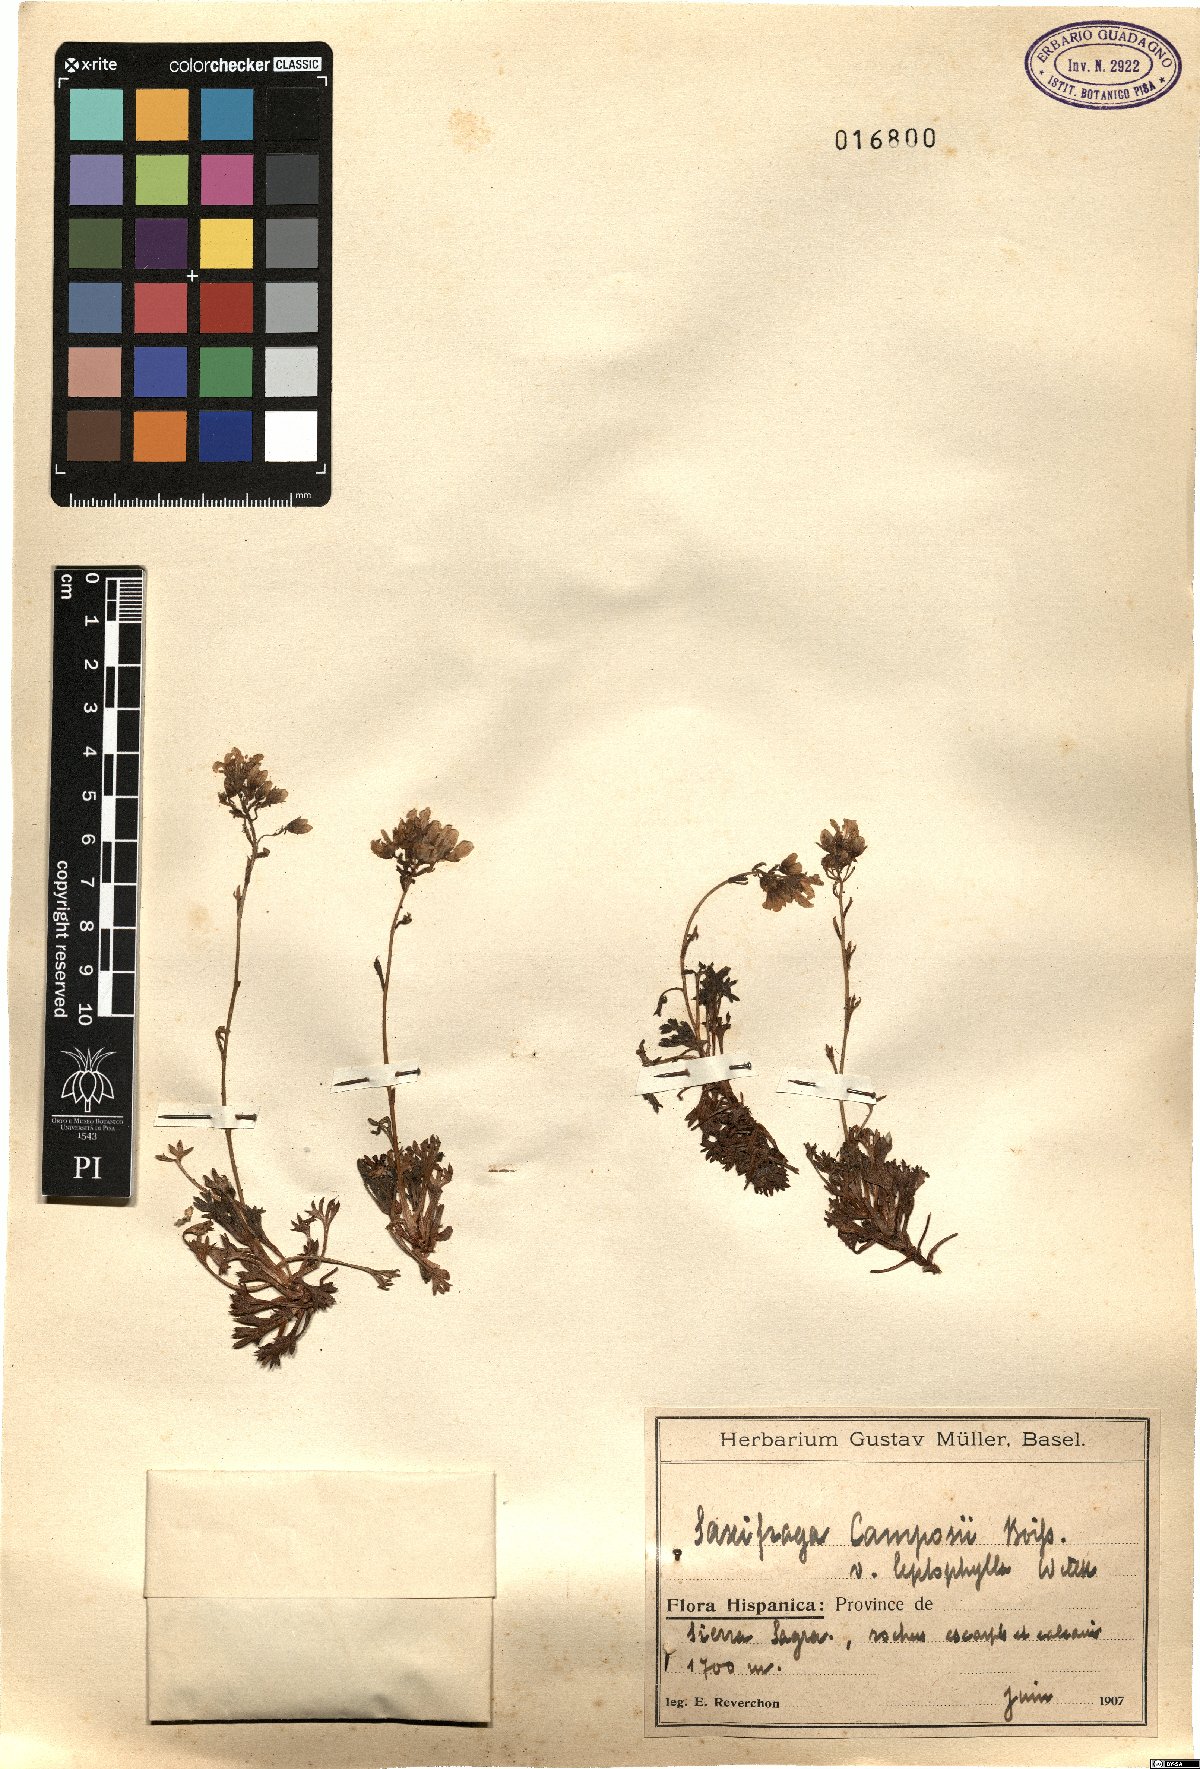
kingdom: Plantae
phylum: Tracheophyta
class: Magnoliopsida
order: Saxifragales
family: Saxifragaceae
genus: Saxifraga
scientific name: Saxifraga almeriensis
